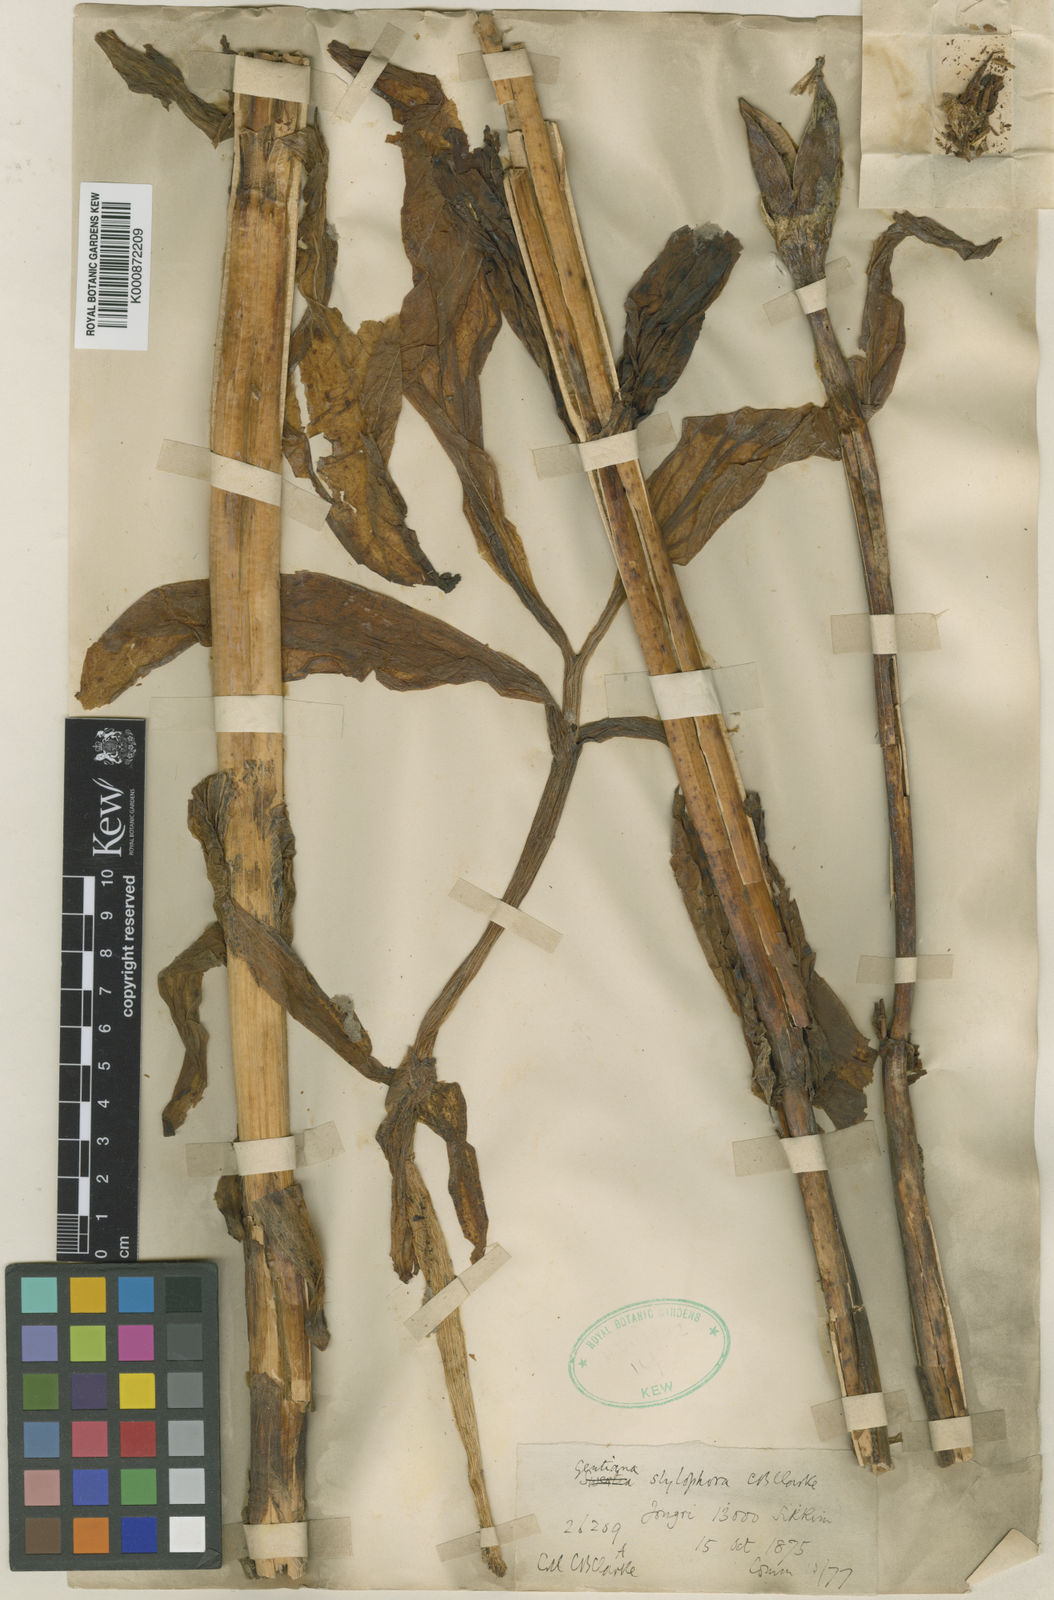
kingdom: Plantae
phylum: Tracheophyta
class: Magnoliopsida
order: Gentianales
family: Gentianaceae
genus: Megacodon
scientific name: Megacodon stylophorus
